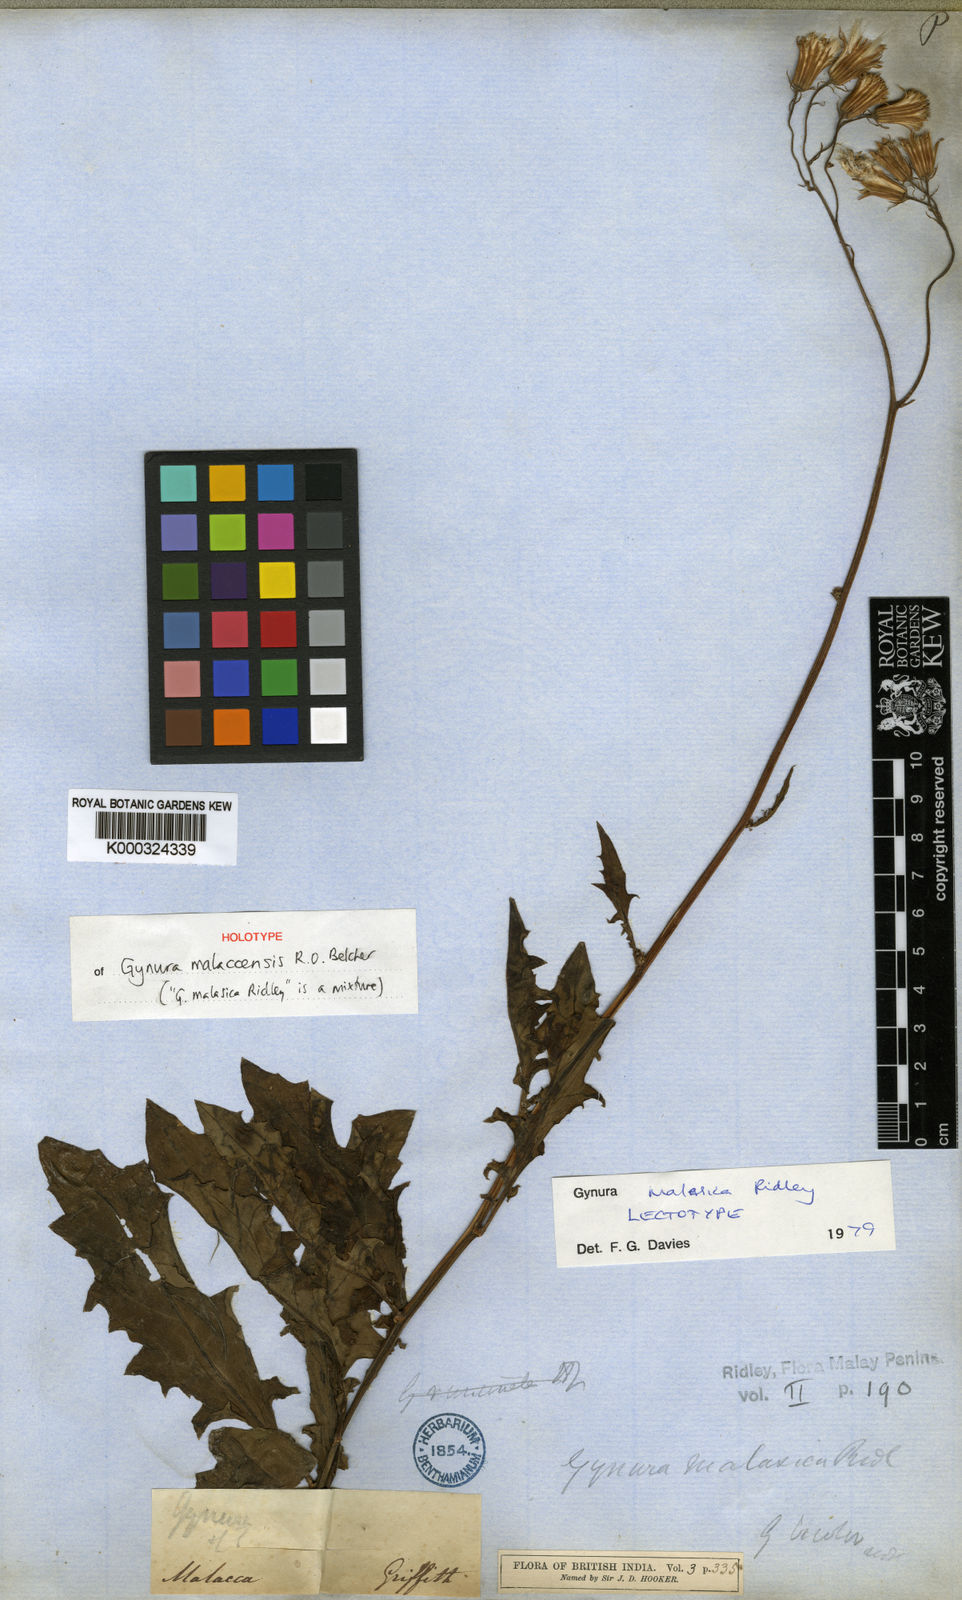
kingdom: Plantae
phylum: Tracheophyta
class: Magnoliopsida
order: Asterales
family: Asteraceae
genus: Erechtites
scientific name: Erechtites hieraciifolius
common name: American burnweed
